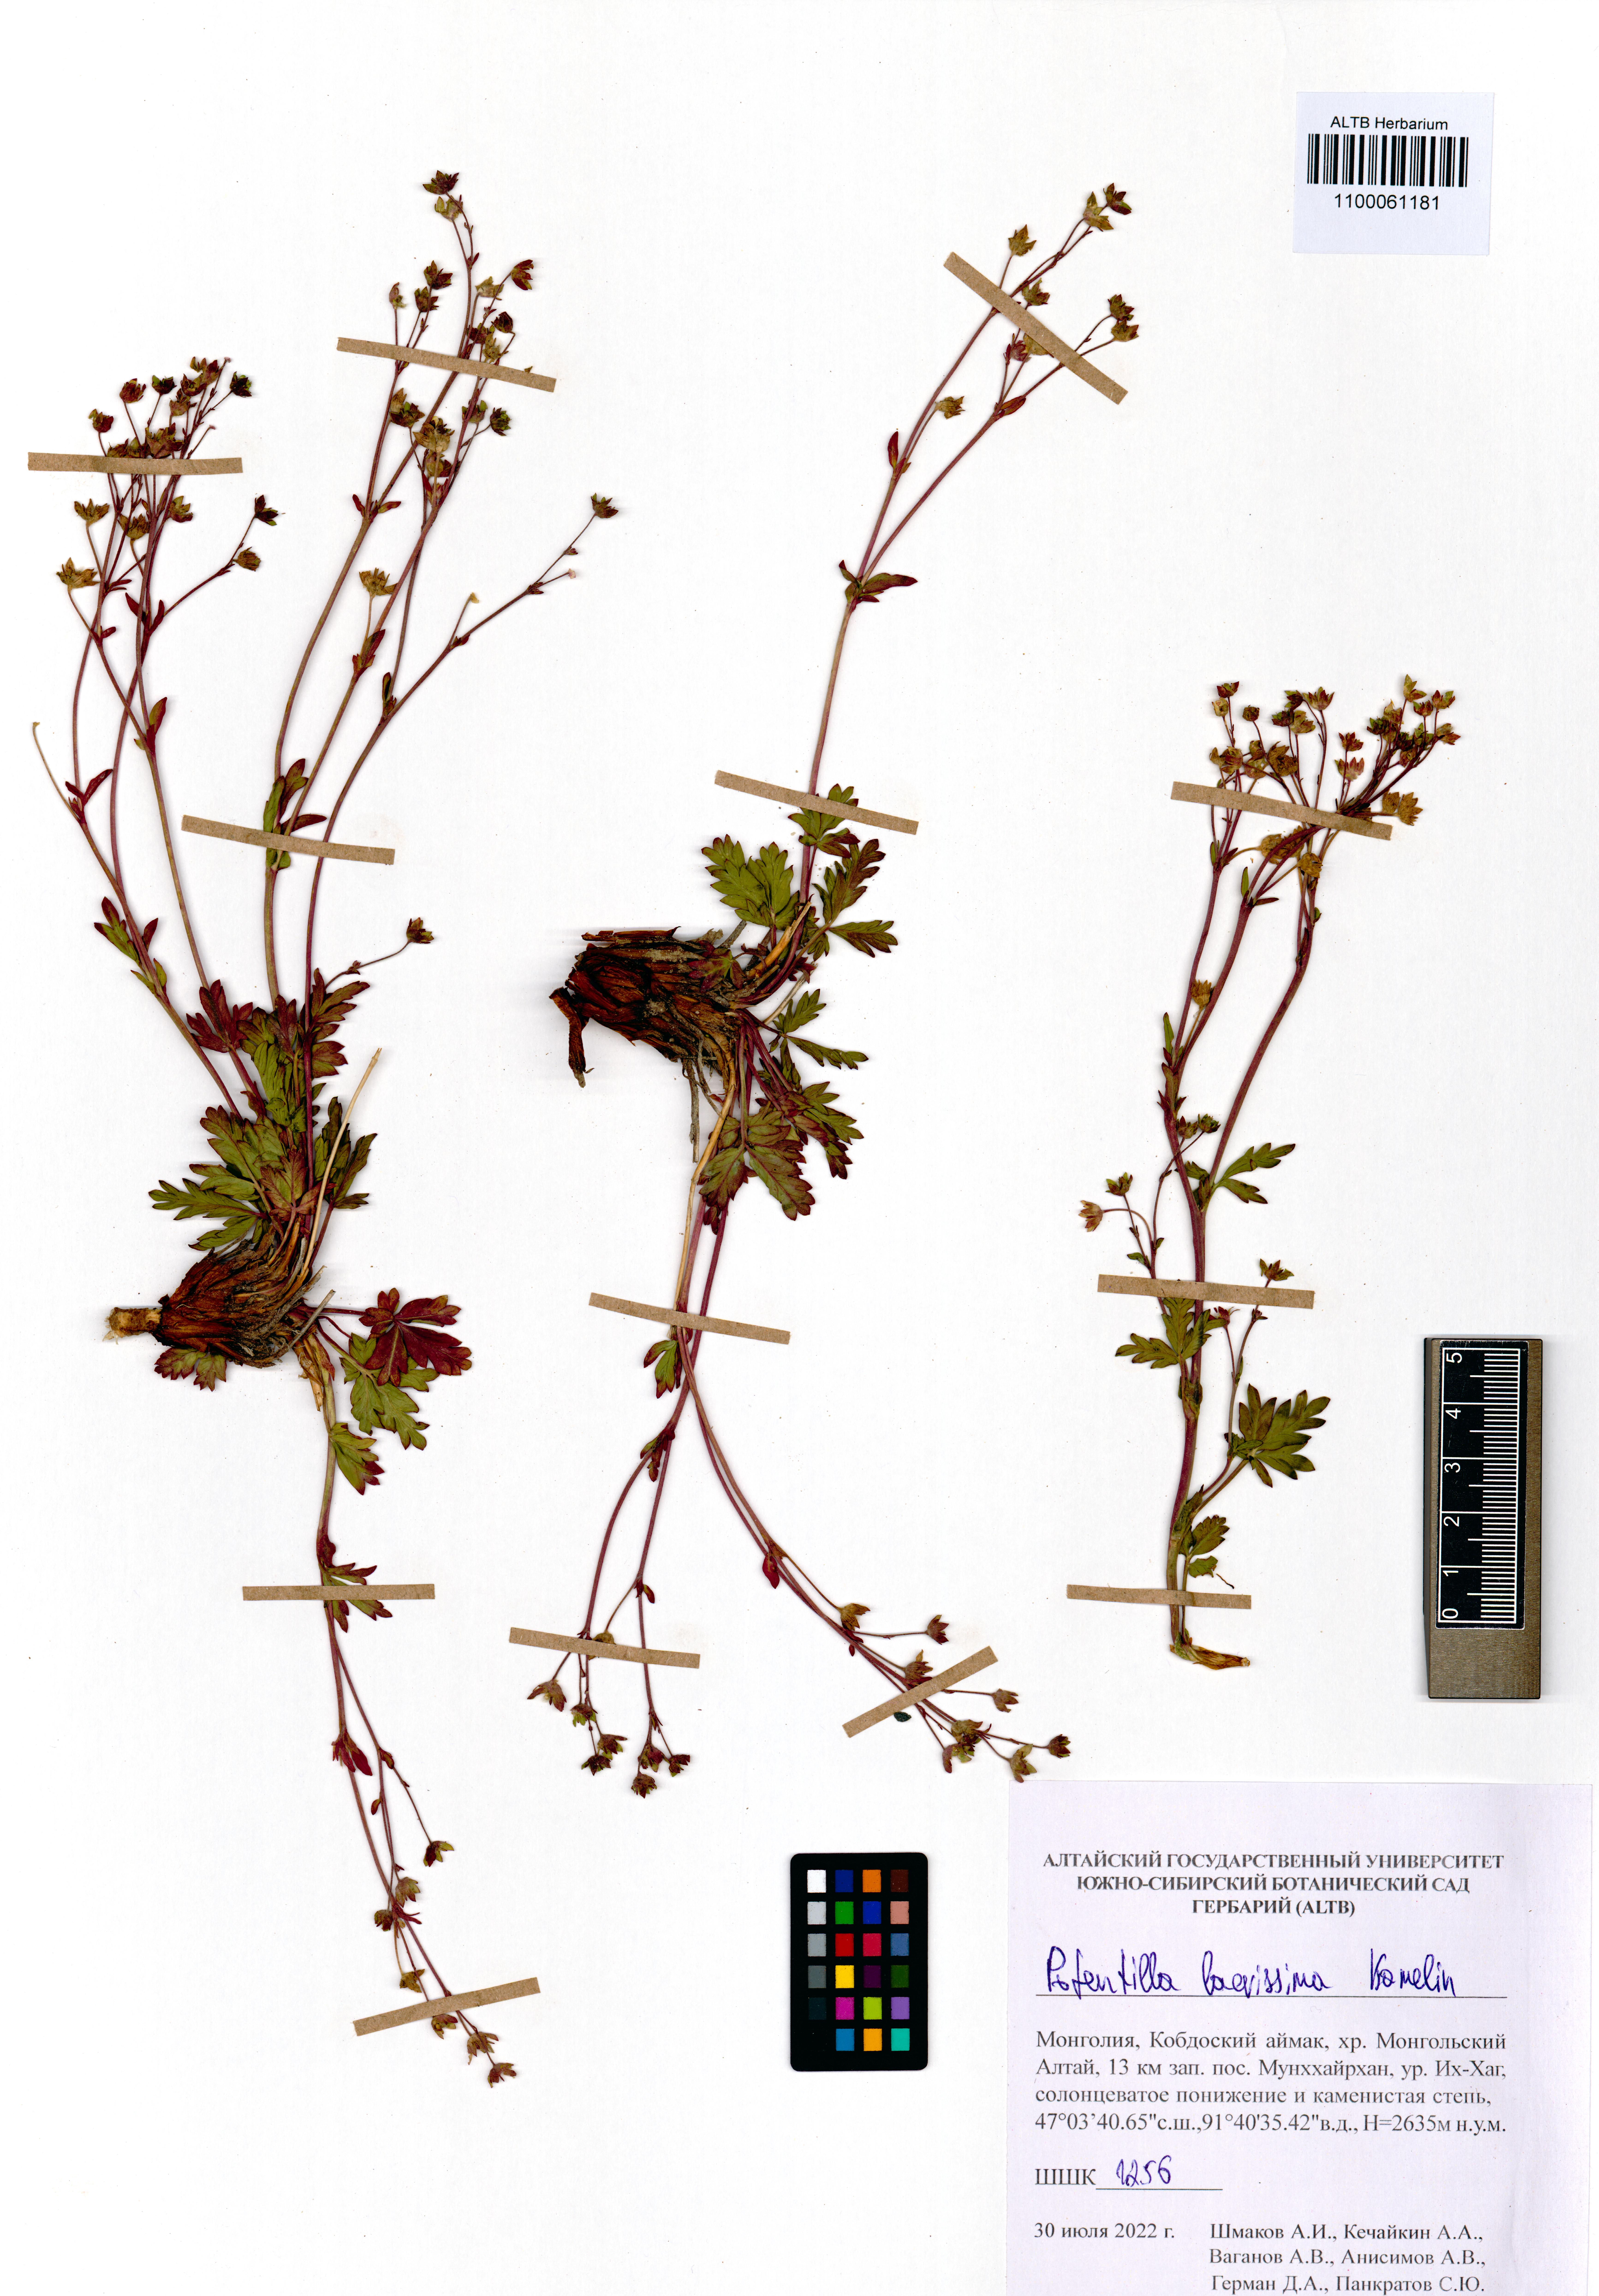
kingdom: Plantae
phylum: Tracheophyta
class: Magnoliopsida
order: Rosales
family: Rosaceae
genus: Potentilla
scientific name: Potentilla laevissima
